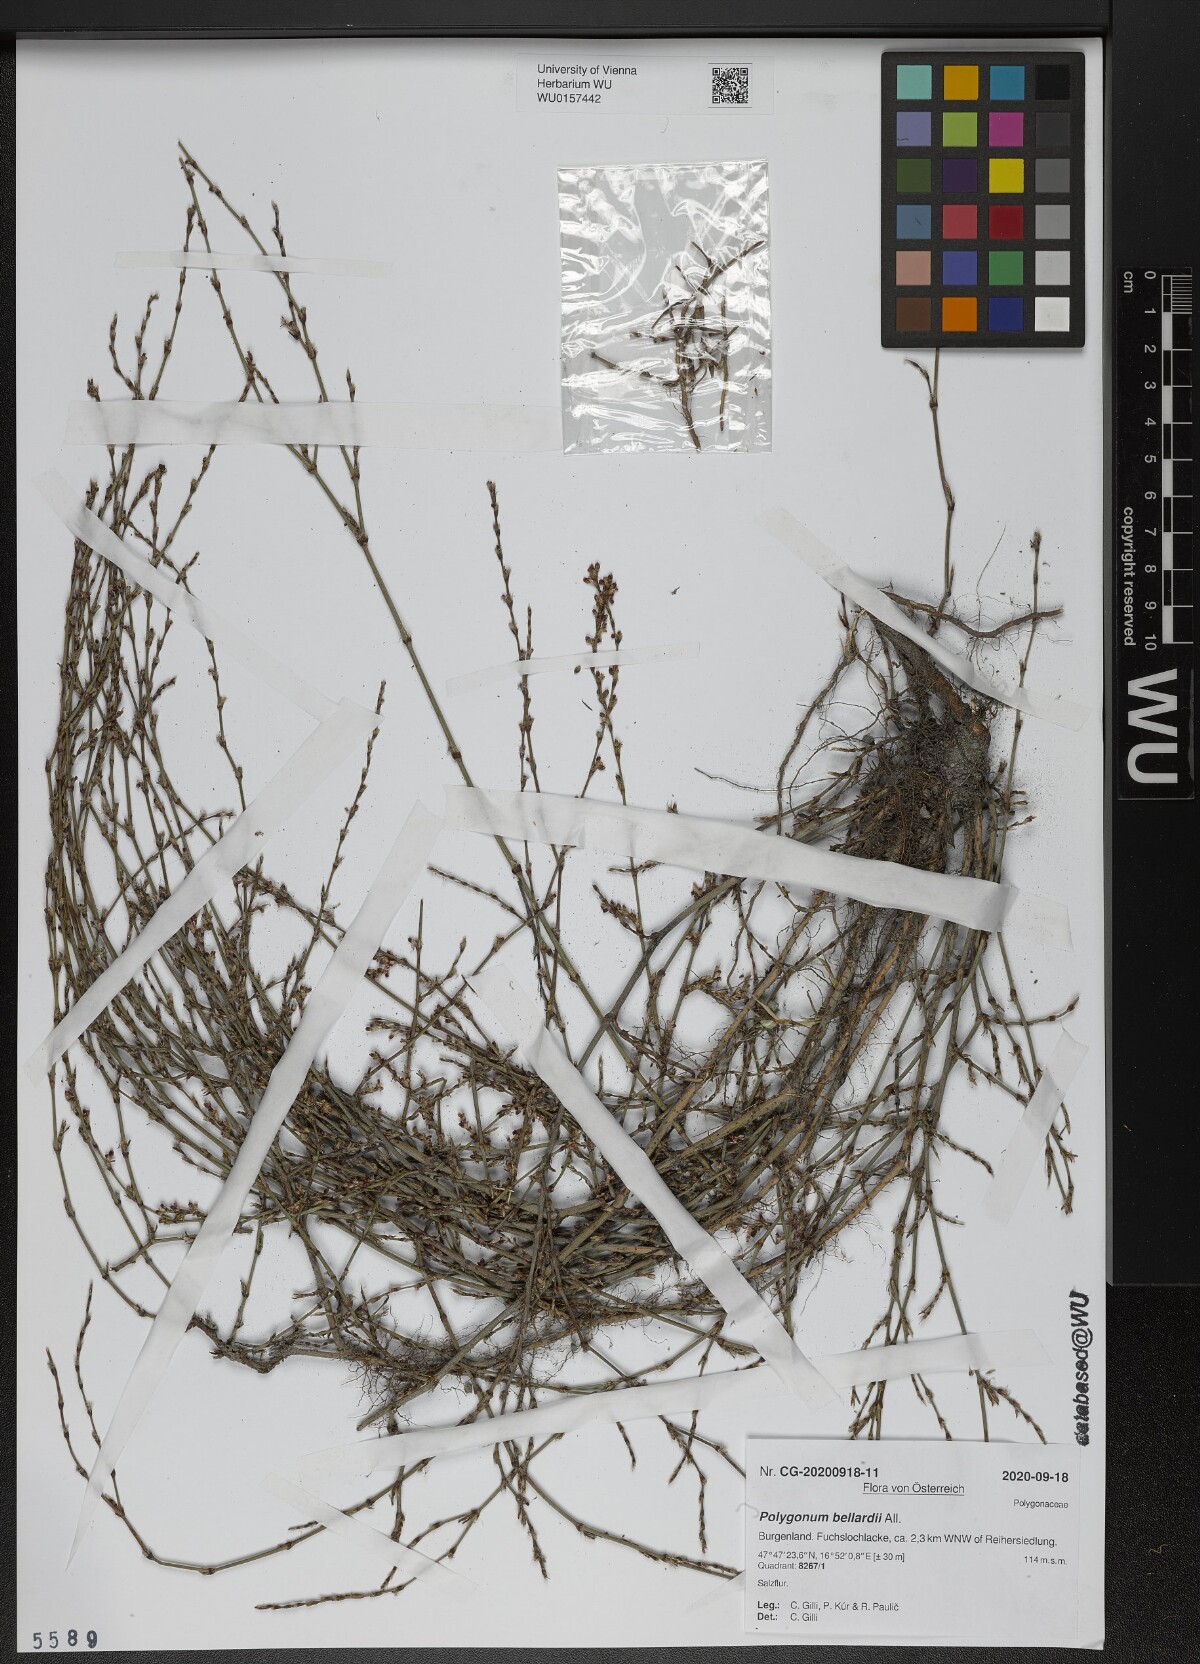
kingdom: Plantae
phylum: Tracheophyta
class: Magnoliopsida
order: Caryophyllales
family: Polygonaceae
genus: Polygonum
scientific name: Polygonum bellardii
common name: Narrowleaf knotweed
